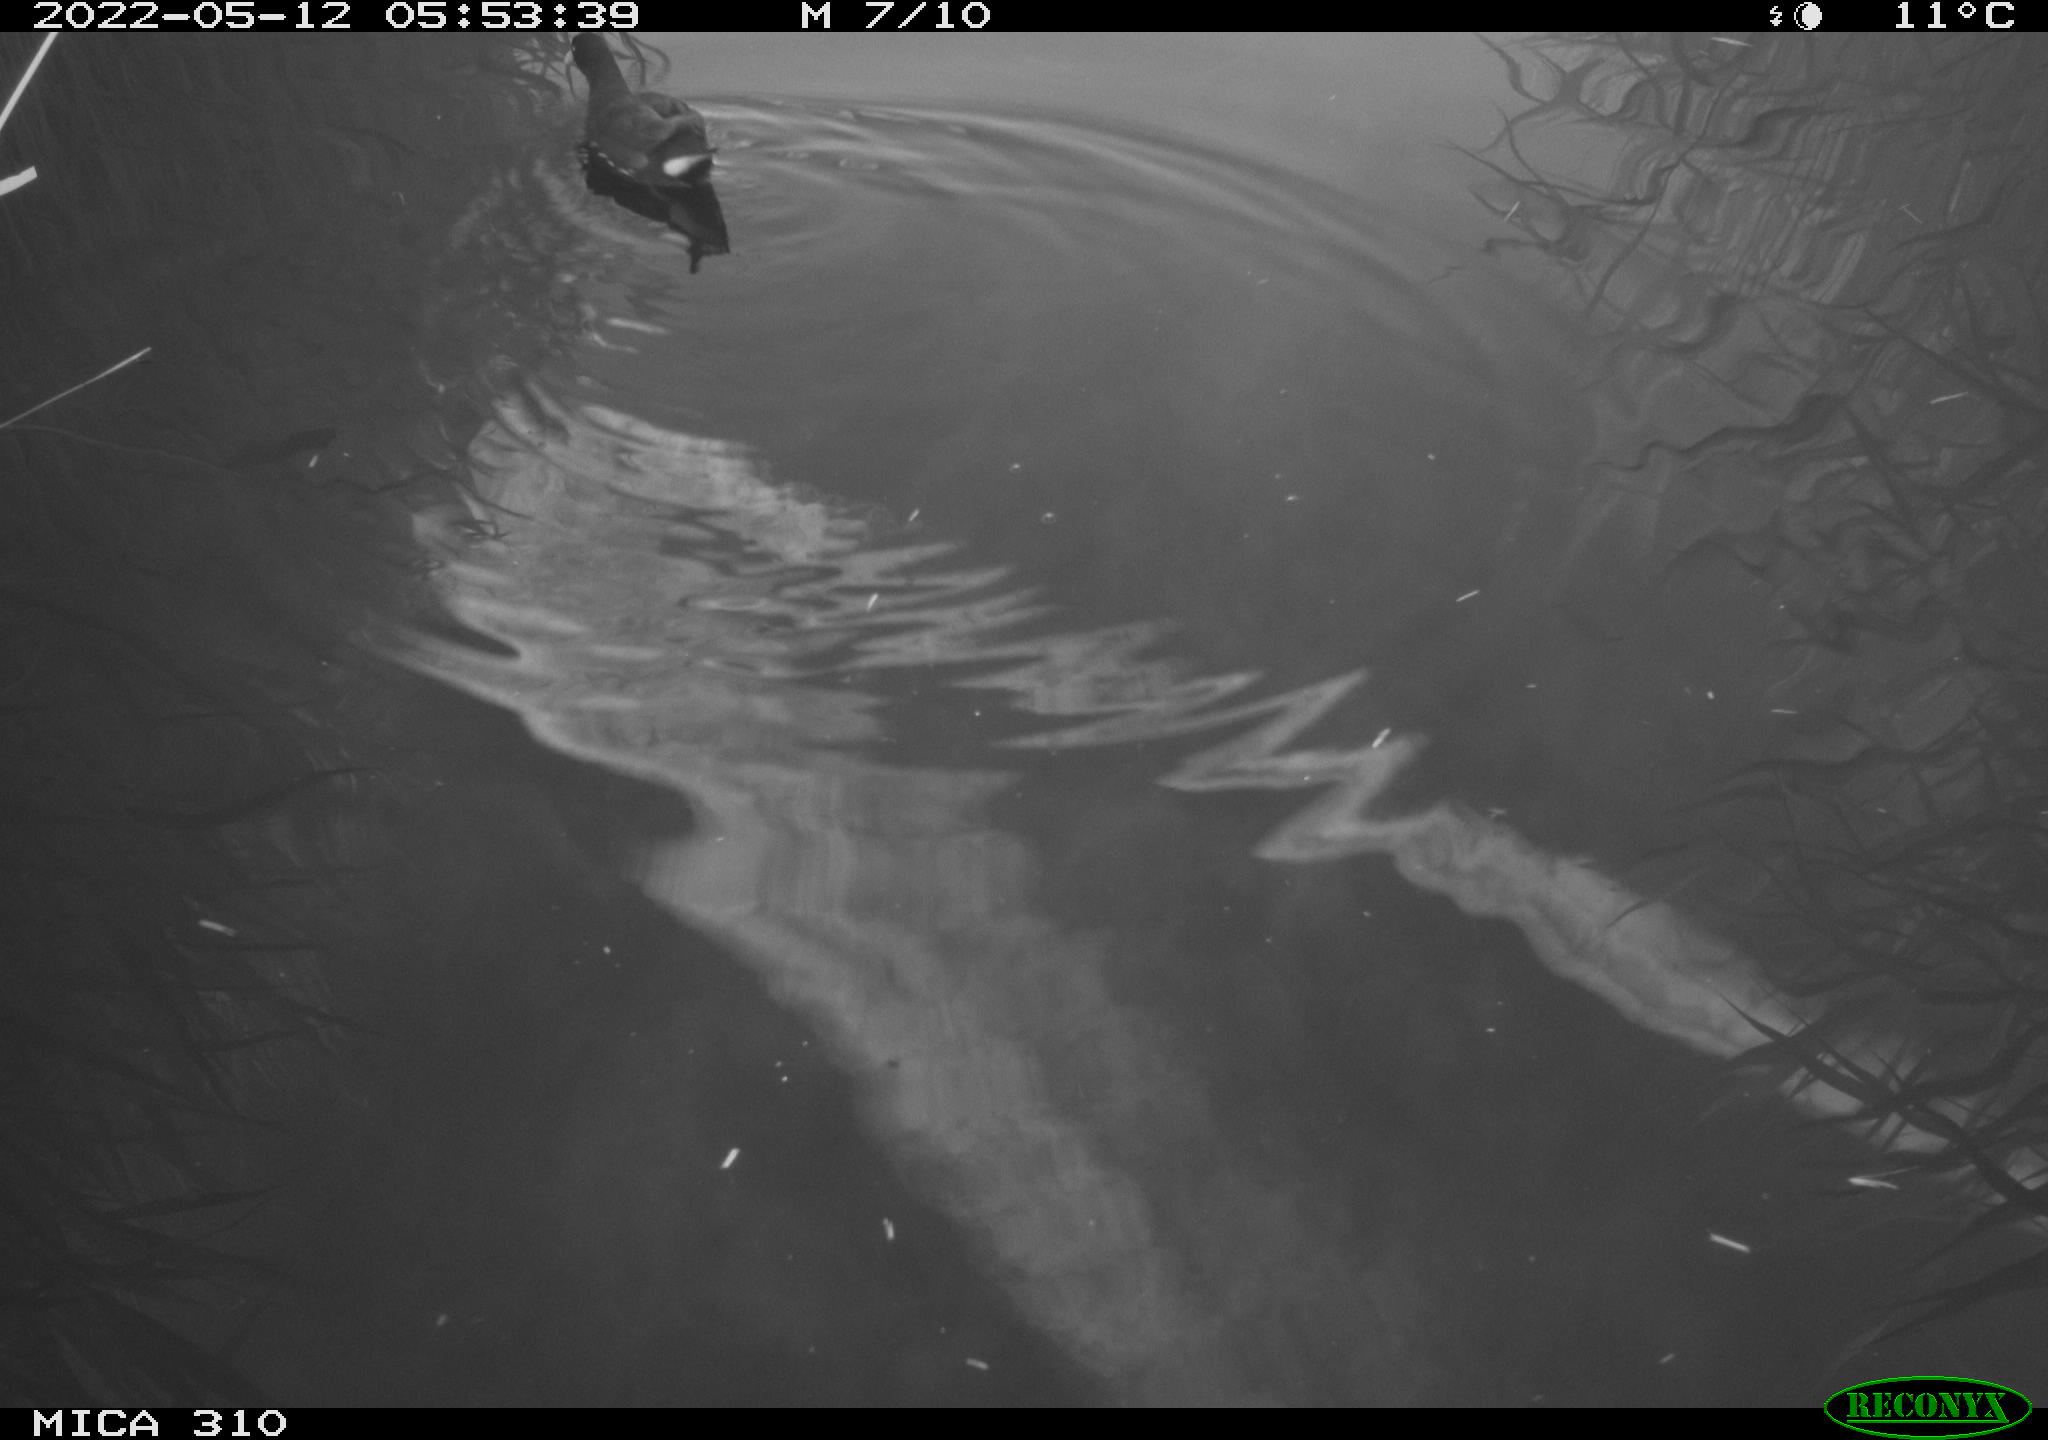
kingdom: Animalia
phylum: Chordata
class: Aves
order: Gruiformes
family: Rallidae
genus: Gallinula
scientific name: Gallinula chloropus
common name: Common moorhen
